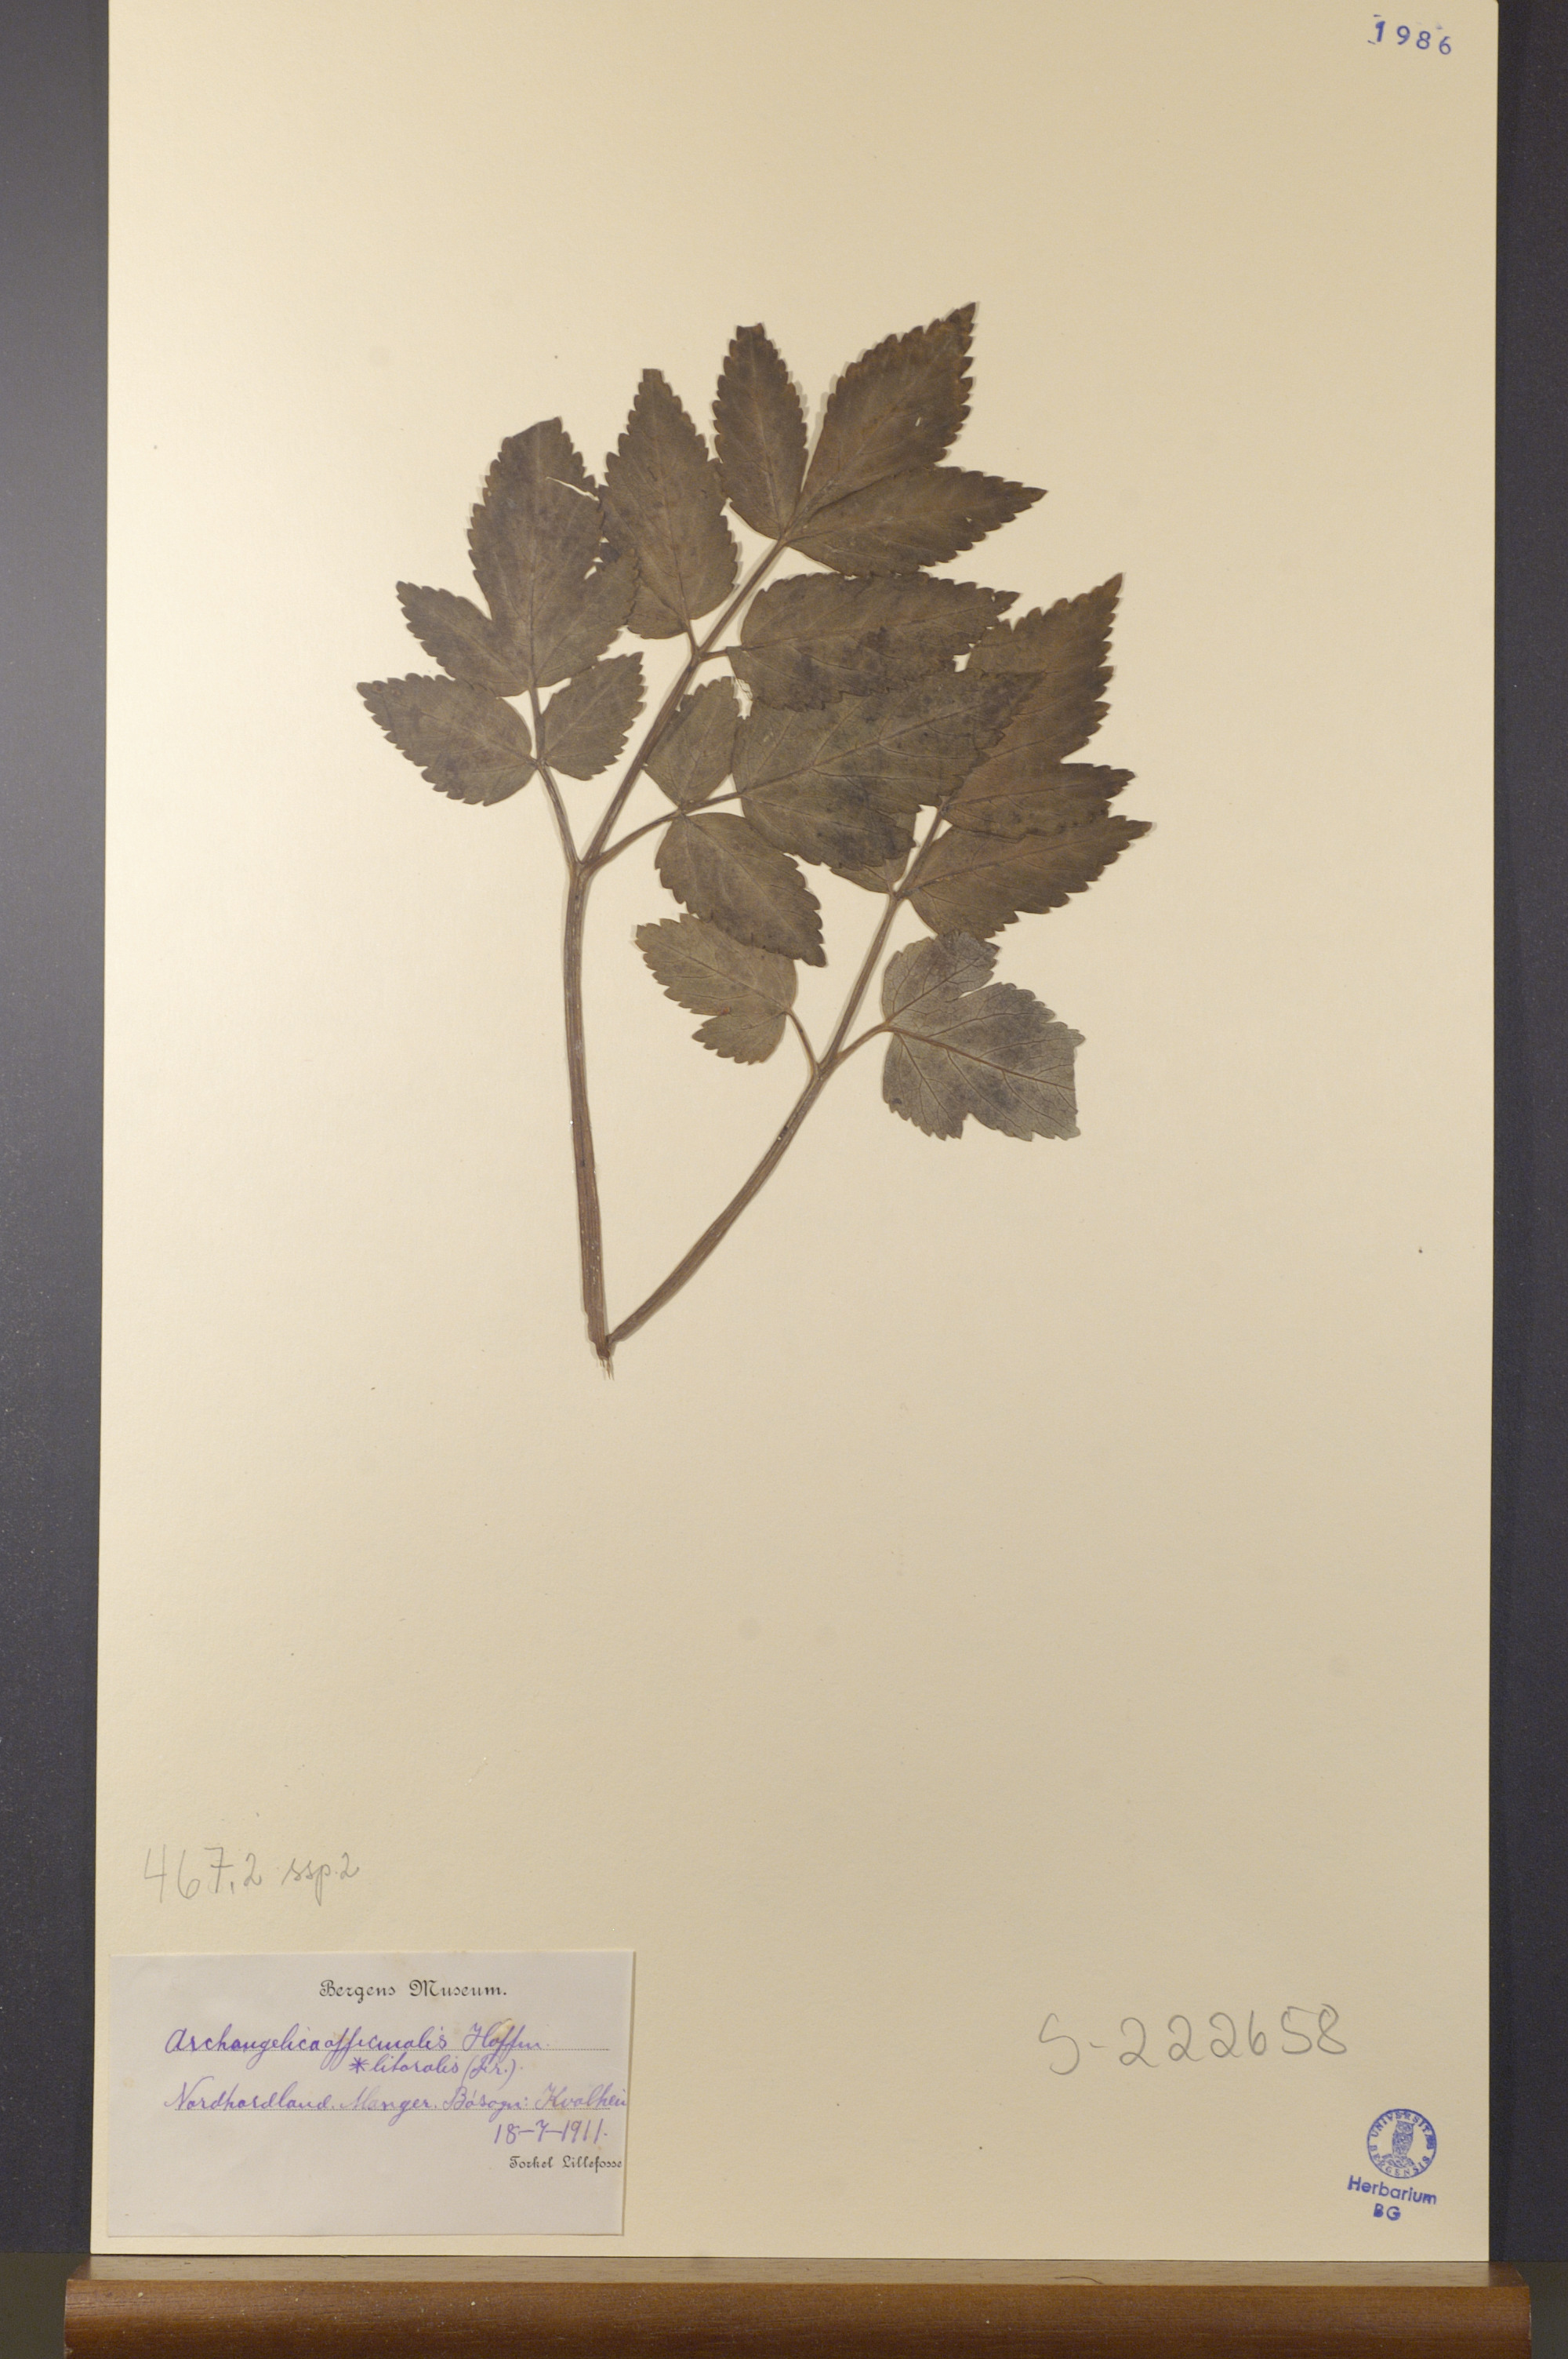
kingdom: Plantae
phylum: Tracheophyta
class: Magnoliopsida
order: Apiales
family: Apiaceae
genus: Angelica
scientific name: Angelica archangelica
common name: Garden angelica
